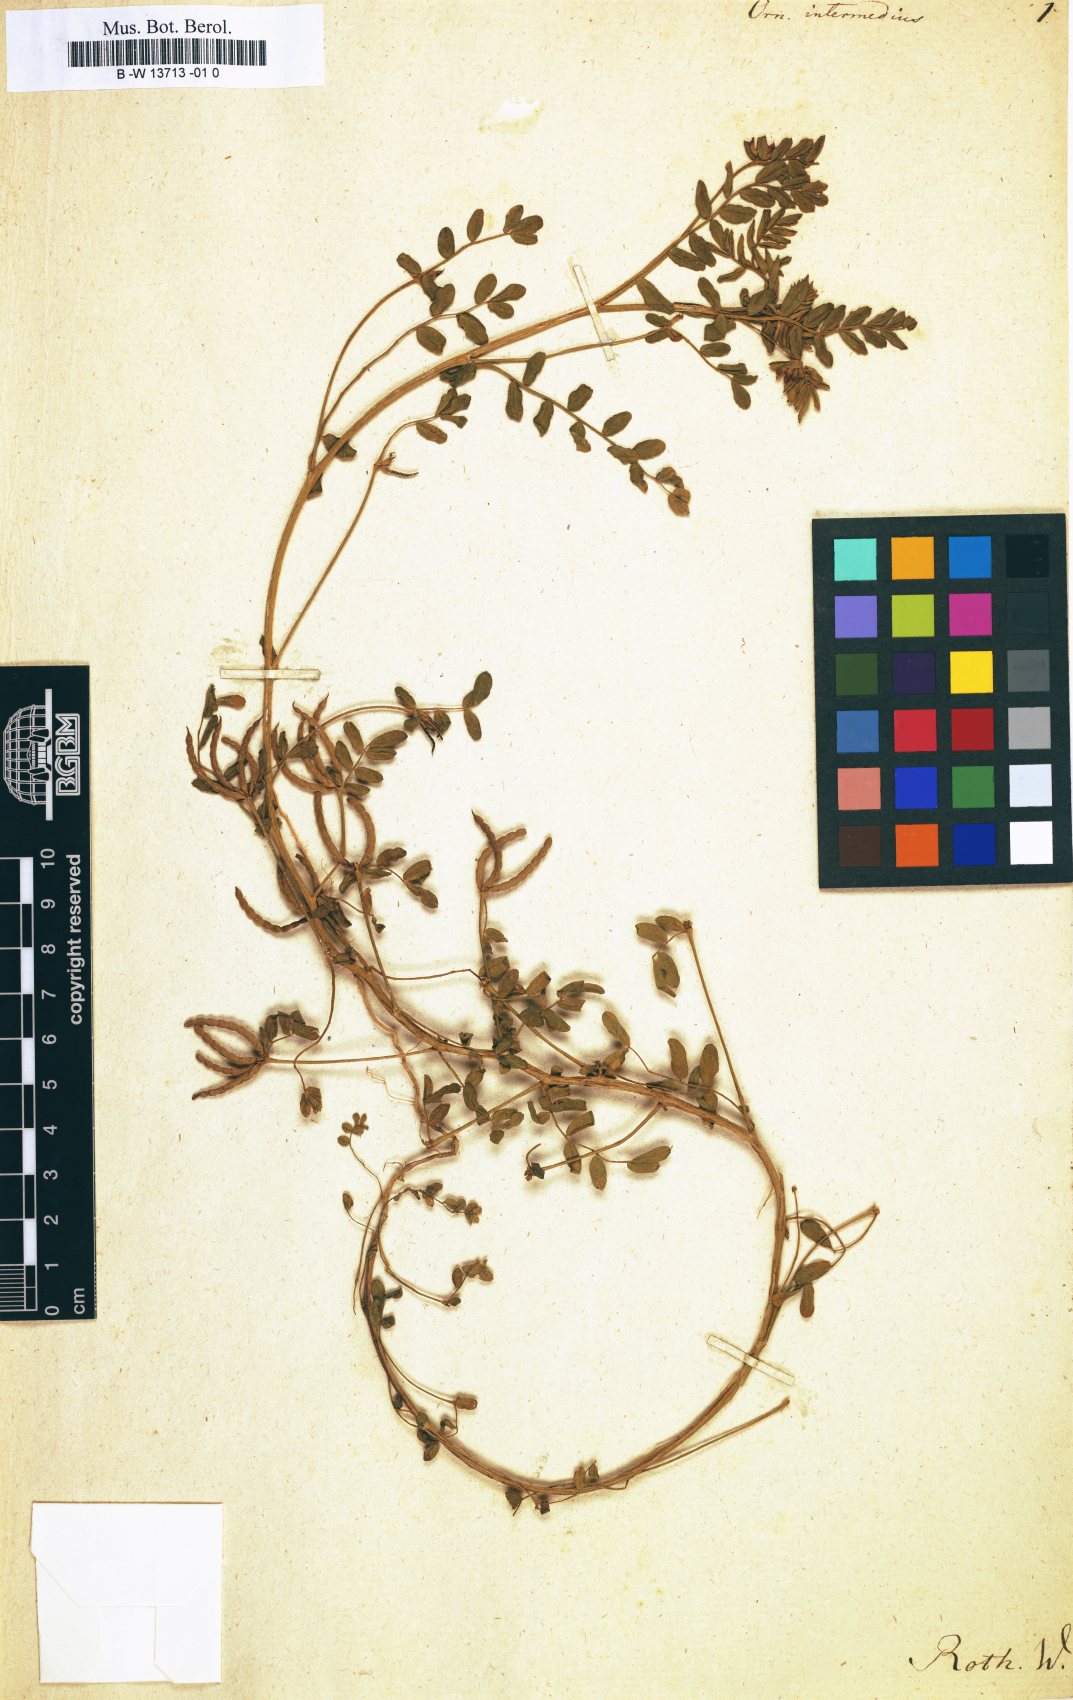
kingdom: Plantae
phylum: Tracheophyta
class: Magnoliopsida
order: Fabales
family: Fabaceae
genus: Ornithopus
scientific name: Ornithopus intermedius
